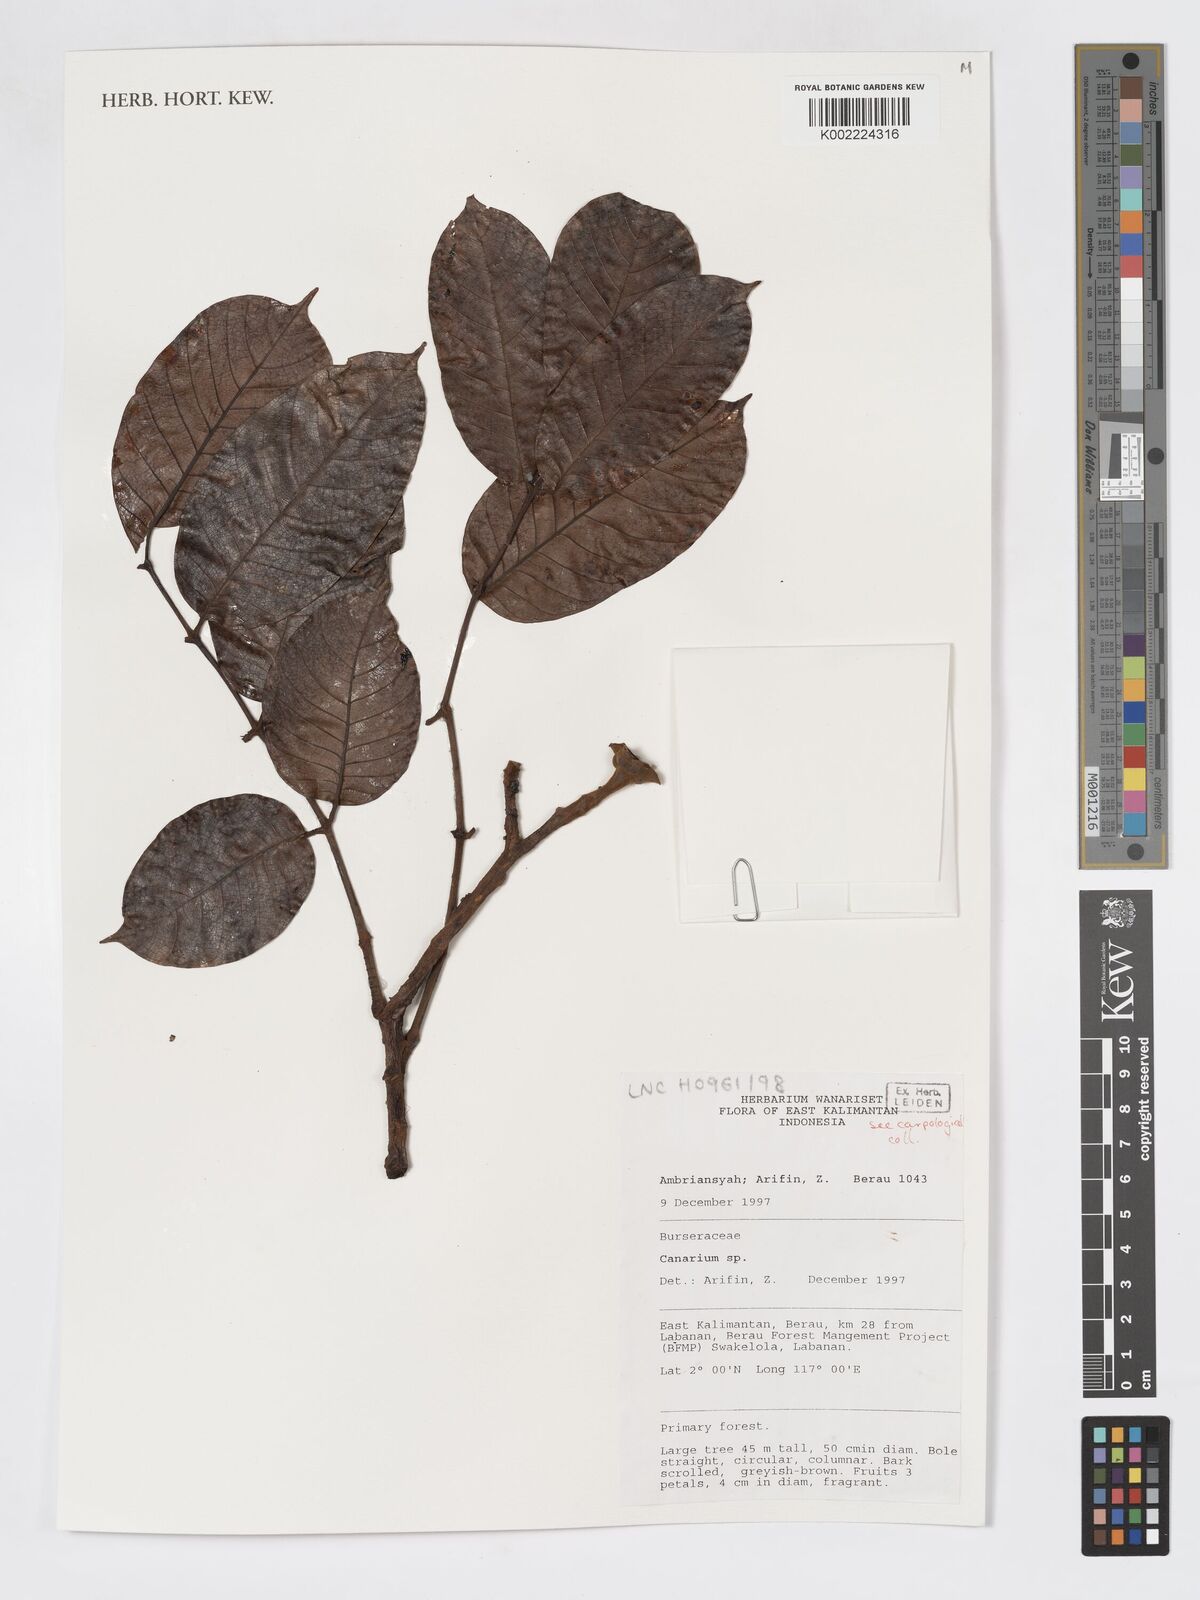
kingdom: Plantae
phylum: Tracheophyta
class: Magnoliopsida
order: Sapindales
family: Burseraceae
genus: Canarium
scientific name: Canarium
